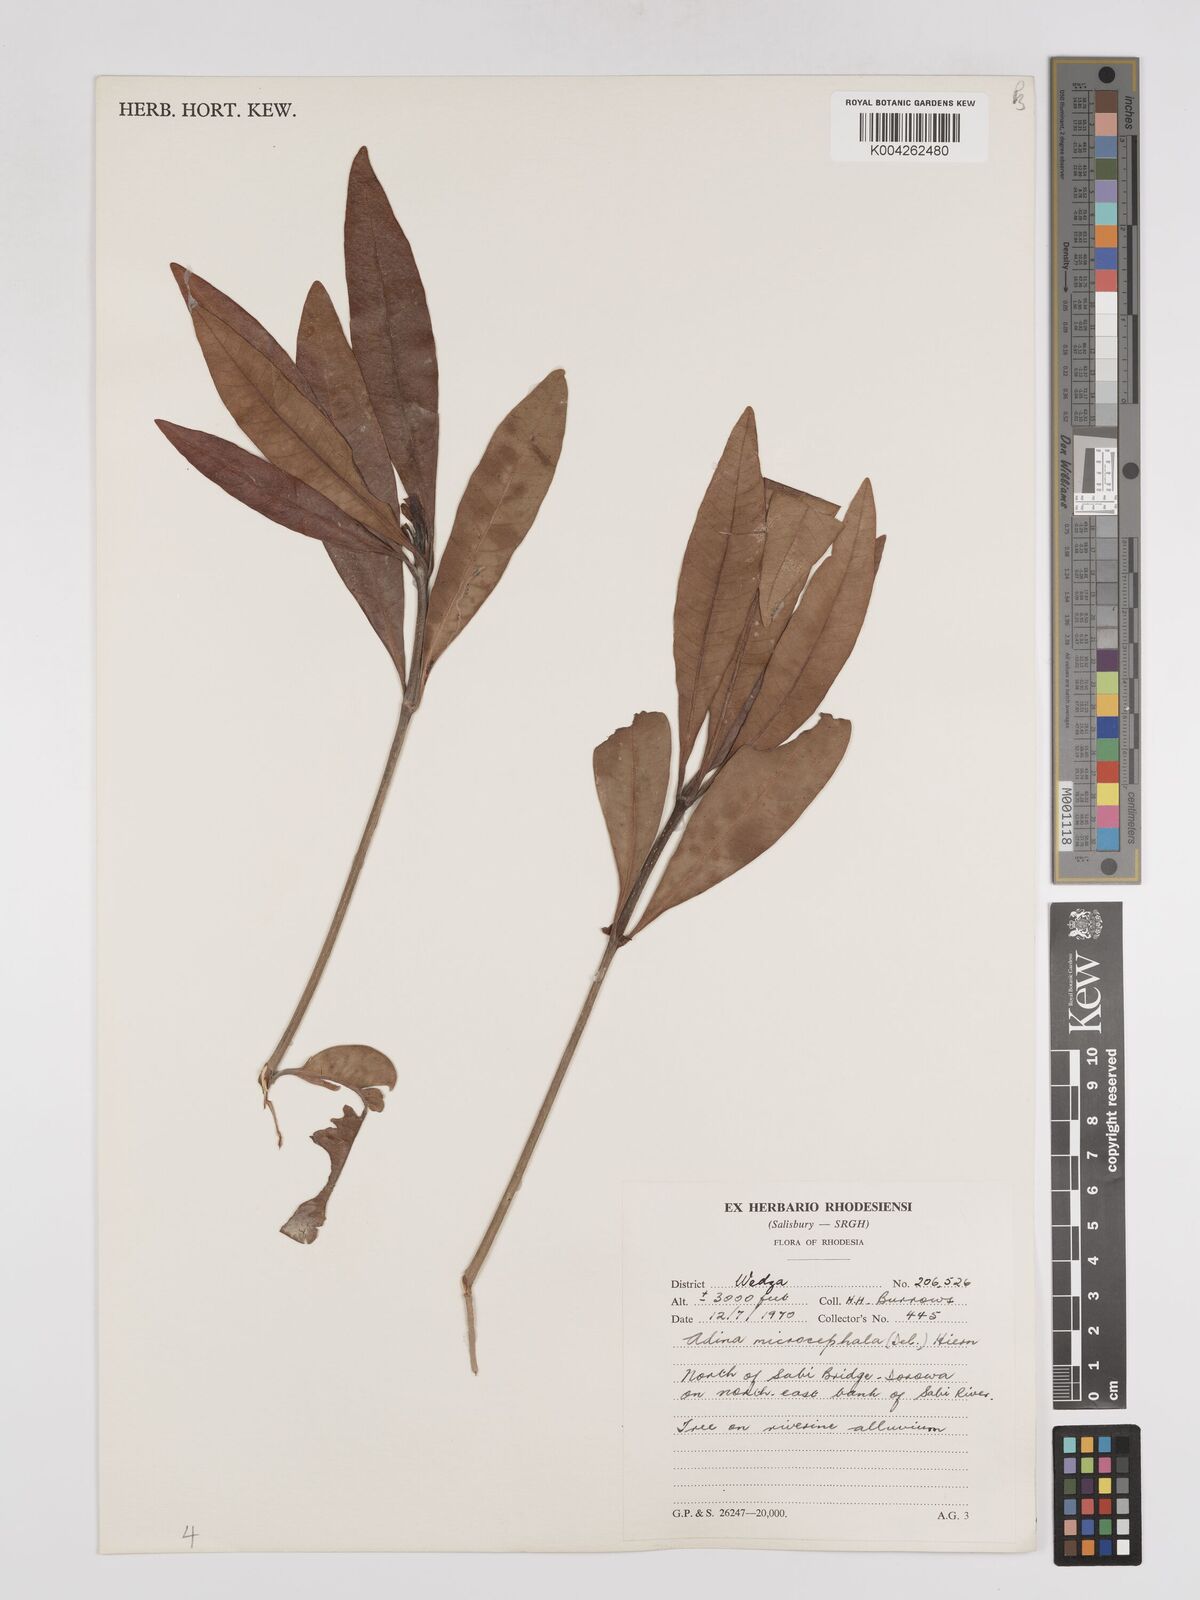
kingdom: Plantae
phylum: Tracheophyta
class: Magnoliopsida
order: Gentianales
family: Rubiaceae
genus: Breonadia
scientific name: Breonadia salicina
